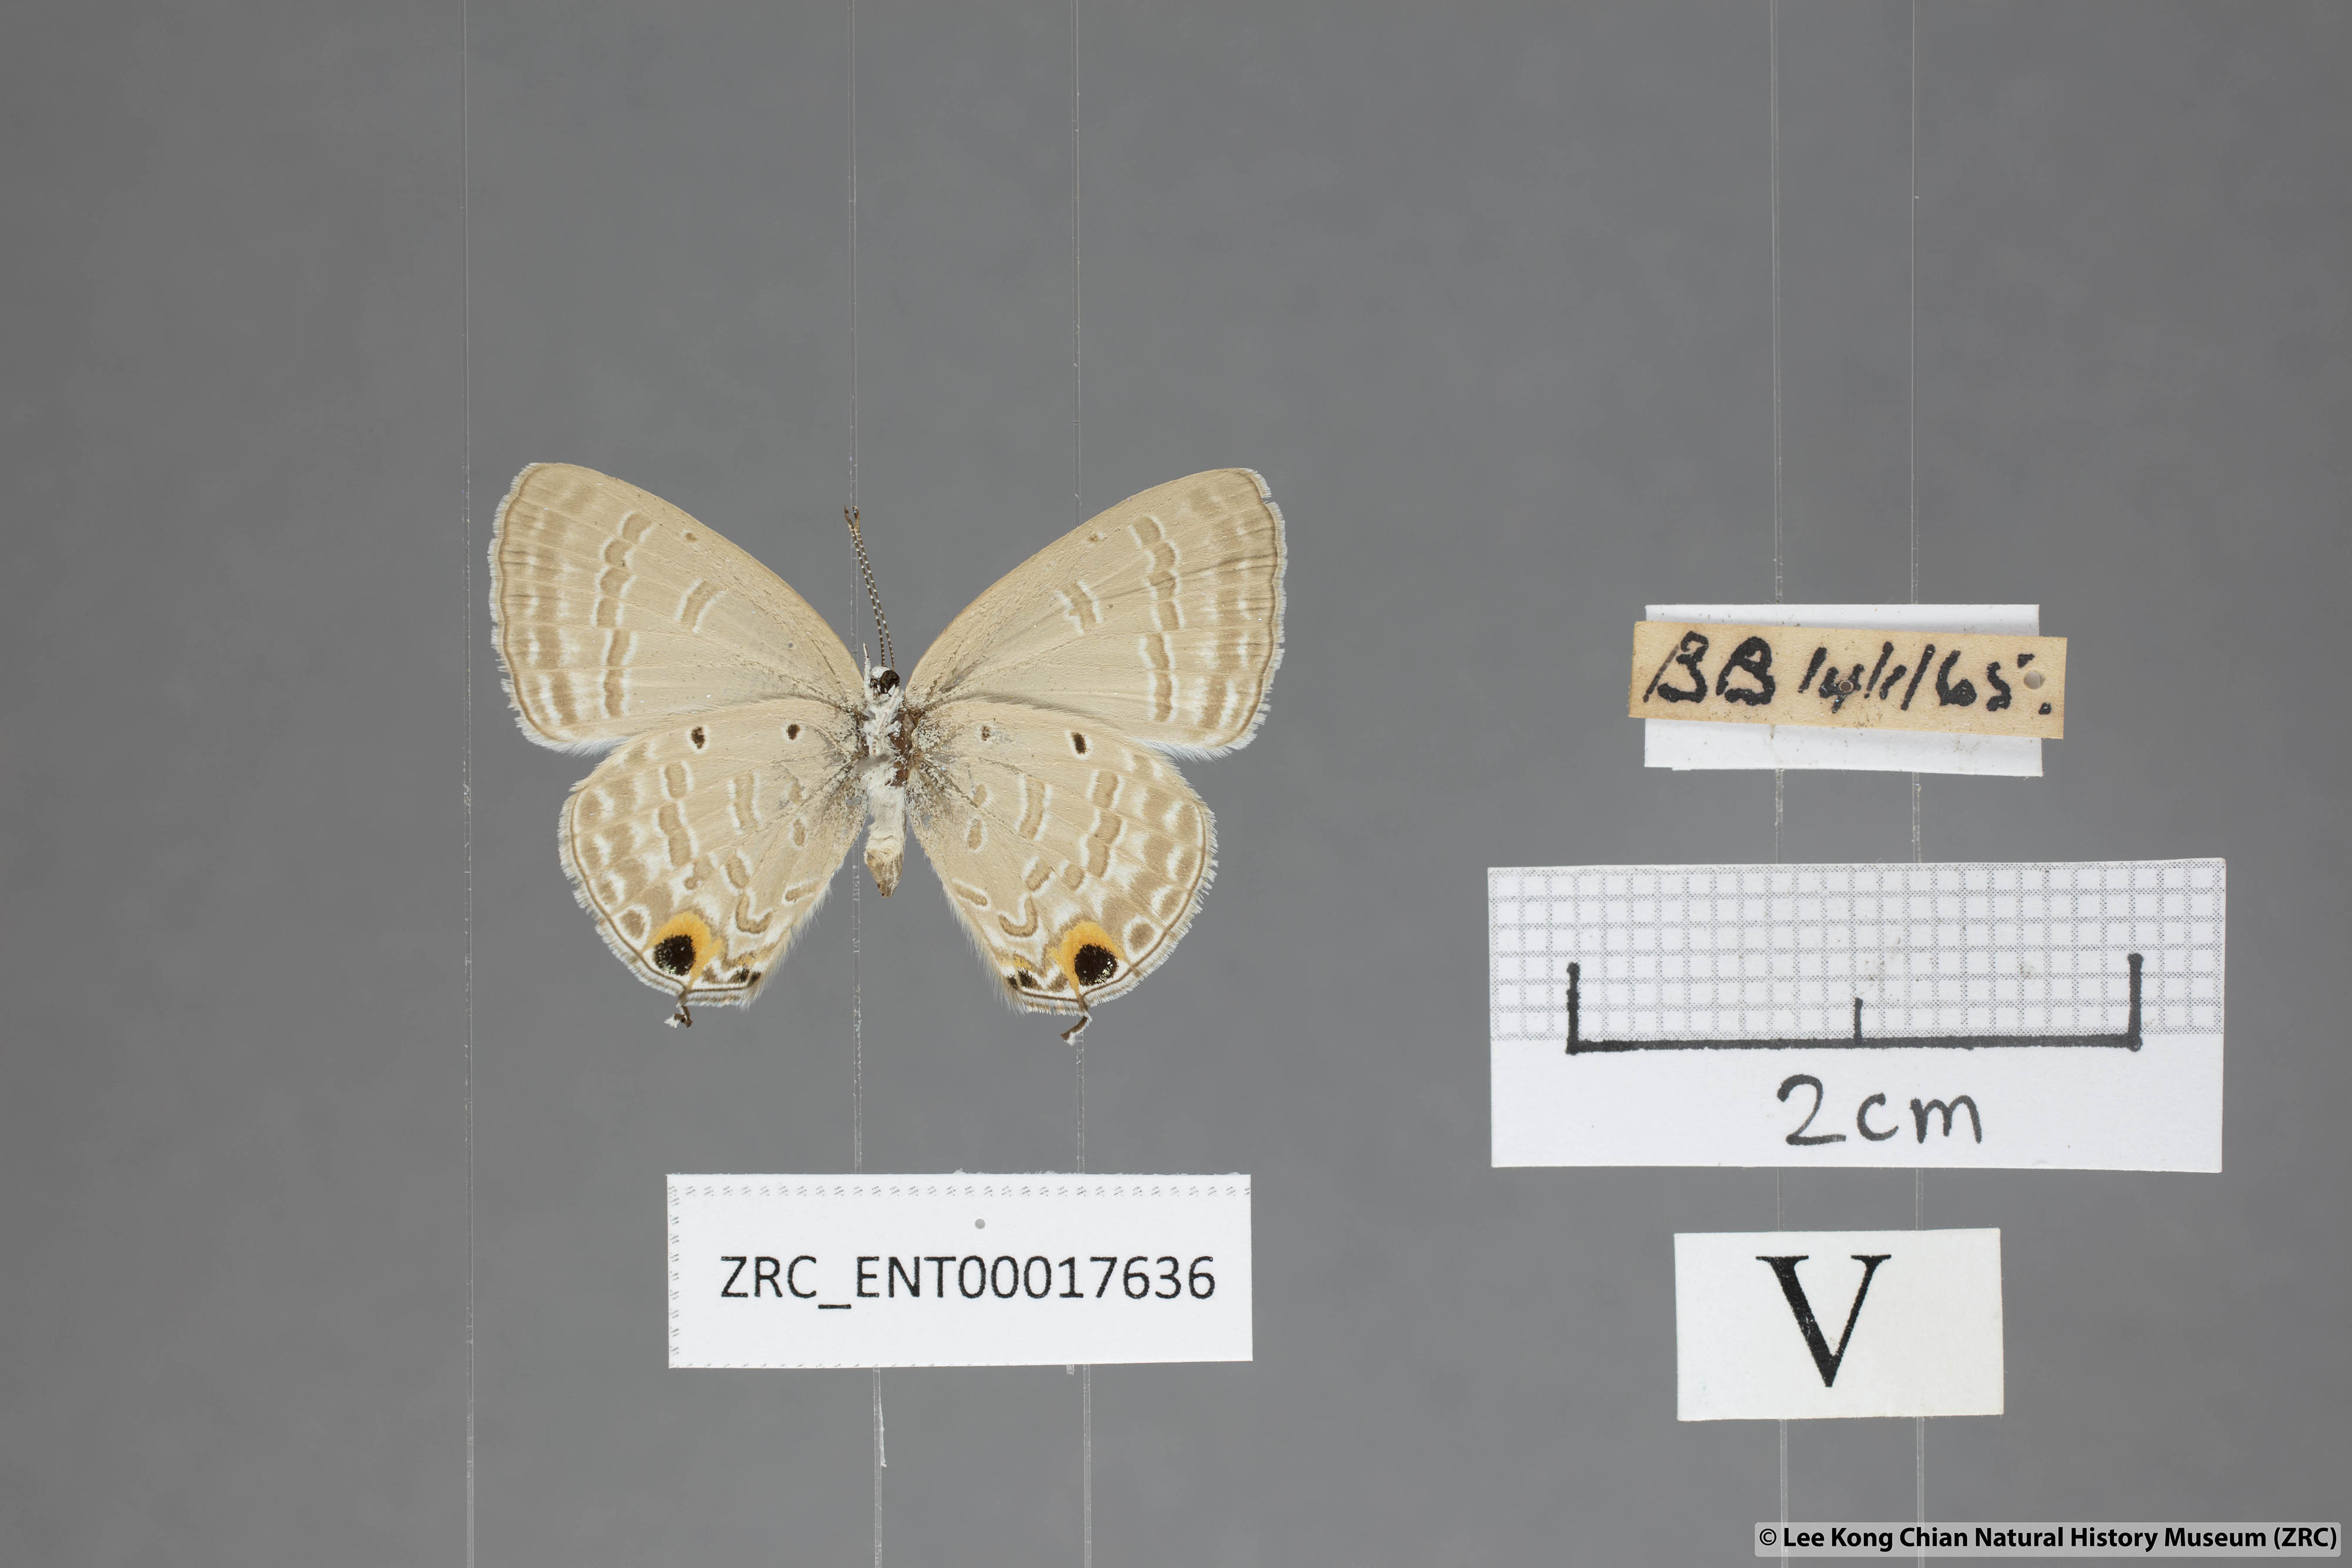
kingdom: Animalia
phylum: Arthropoda
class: Insecta
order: Lepidoptera
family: Lycaenidae
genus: Catochrysops
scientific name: Catochrysops strabo
